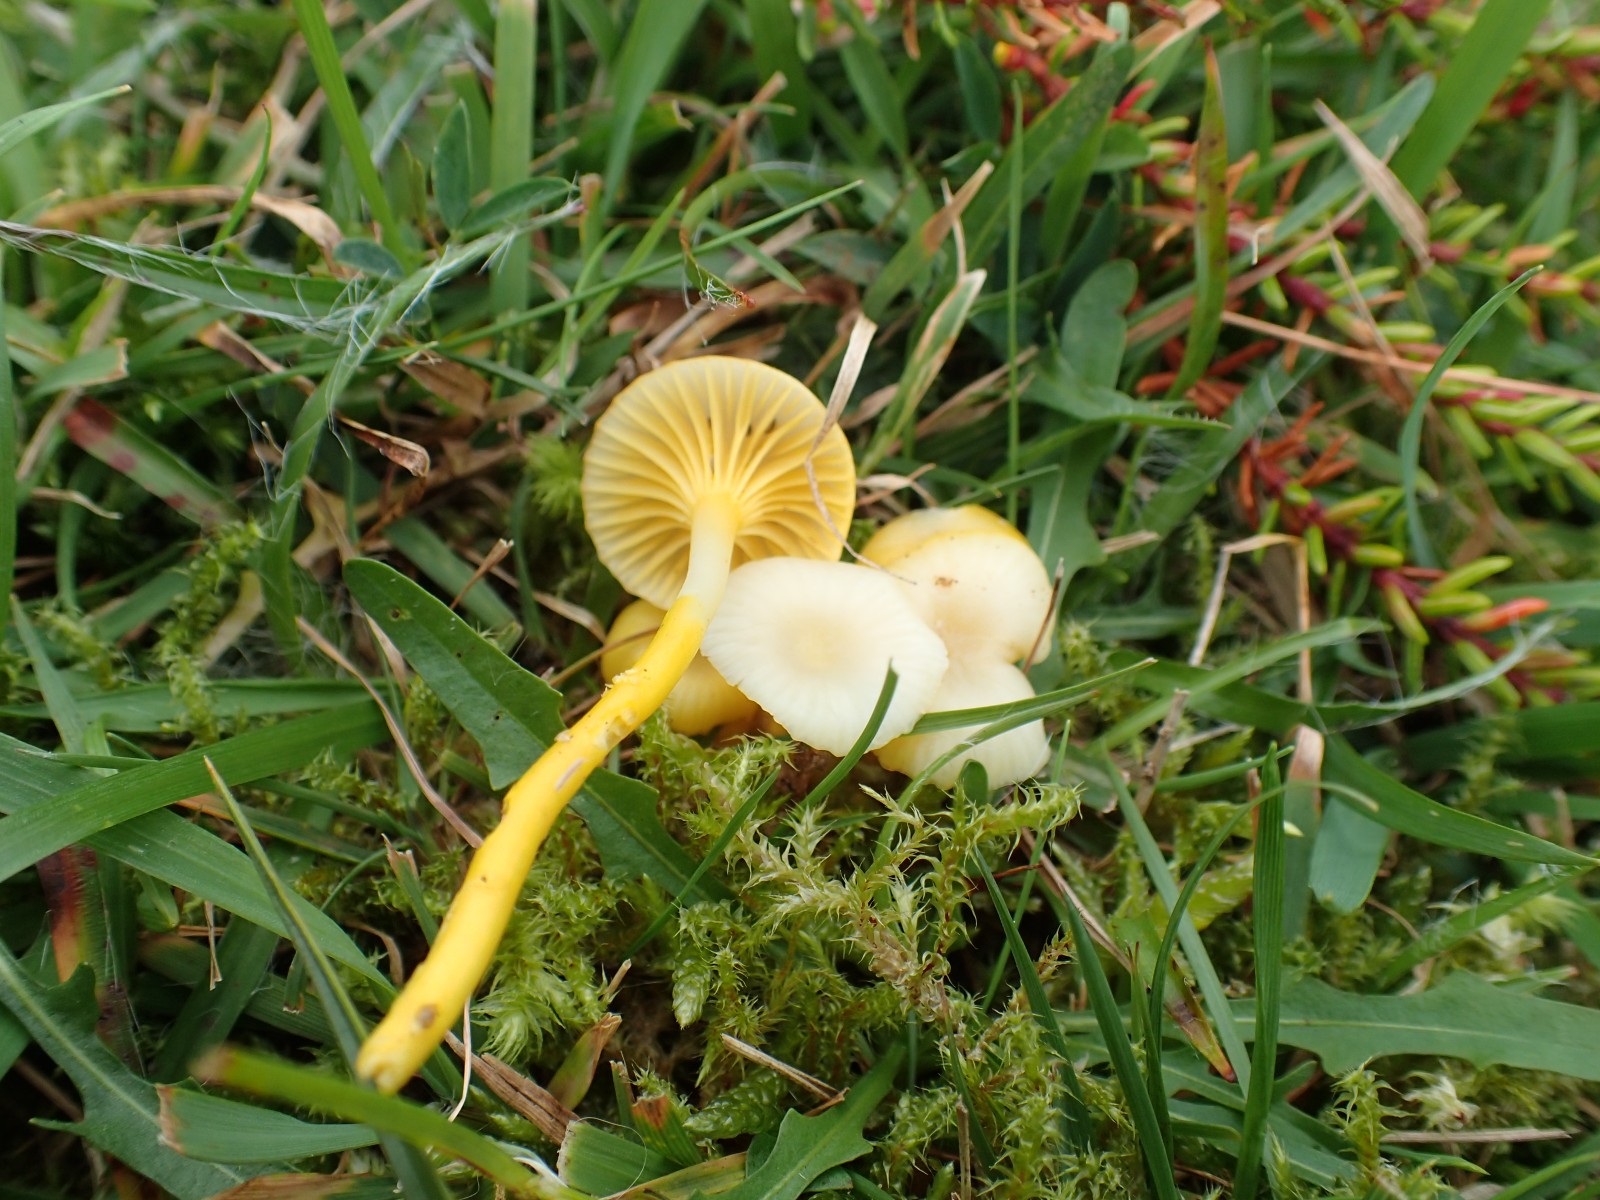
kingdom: Fungi
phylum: Basidiomycota
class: Agaricomycetes
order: Agaricales
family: Hygrophoraceae
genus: Gloioxanthomyces
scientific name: Gloioxanthomyces vitellinus
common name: kromgul vokshat
